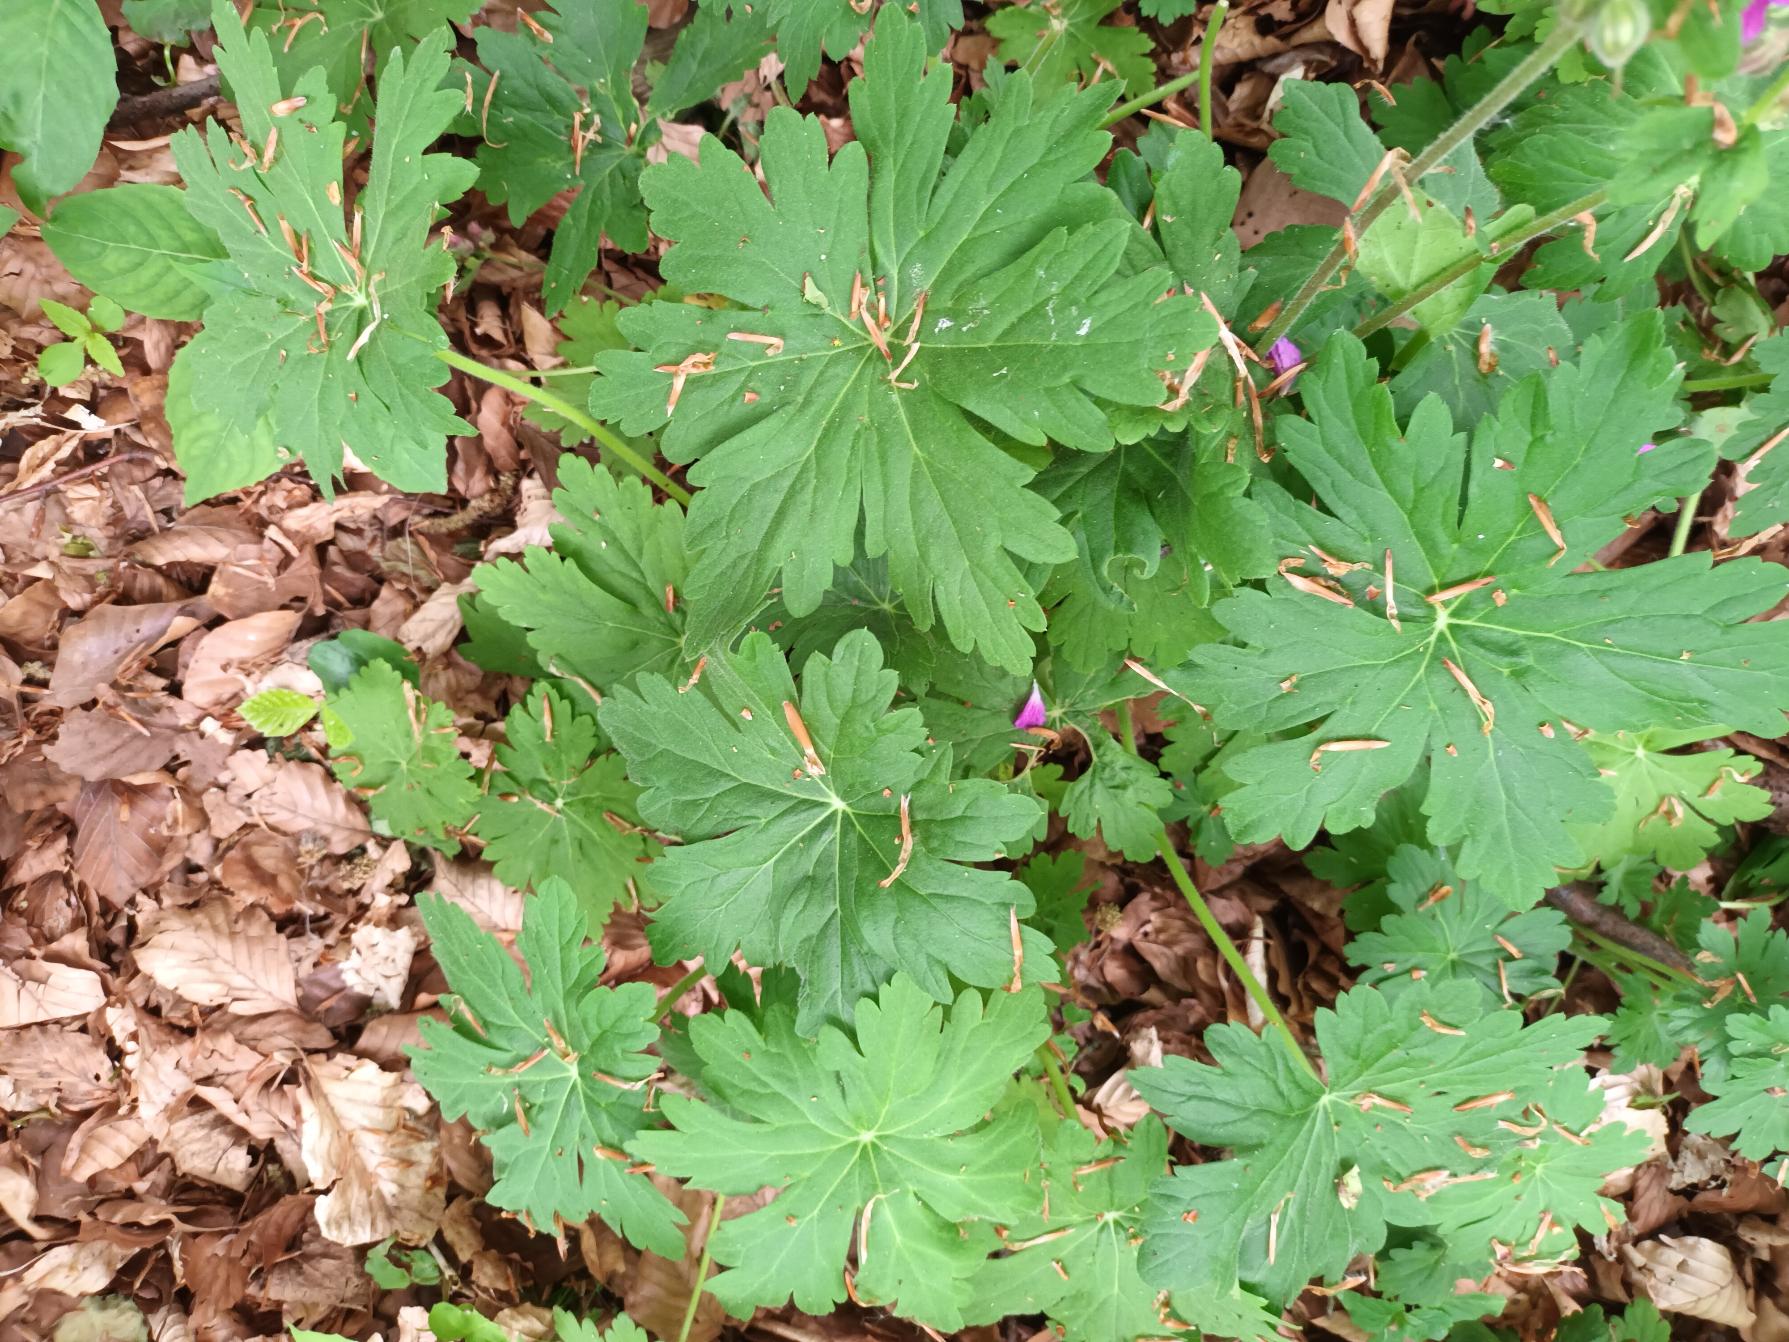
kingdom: Plantae
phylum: Tracheophyta
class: Magnoliopsida
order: Geraniales
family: Geraniaceae
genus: Geranium
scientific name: Geranium macrorrhizum
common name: Storrodet storkenæb
